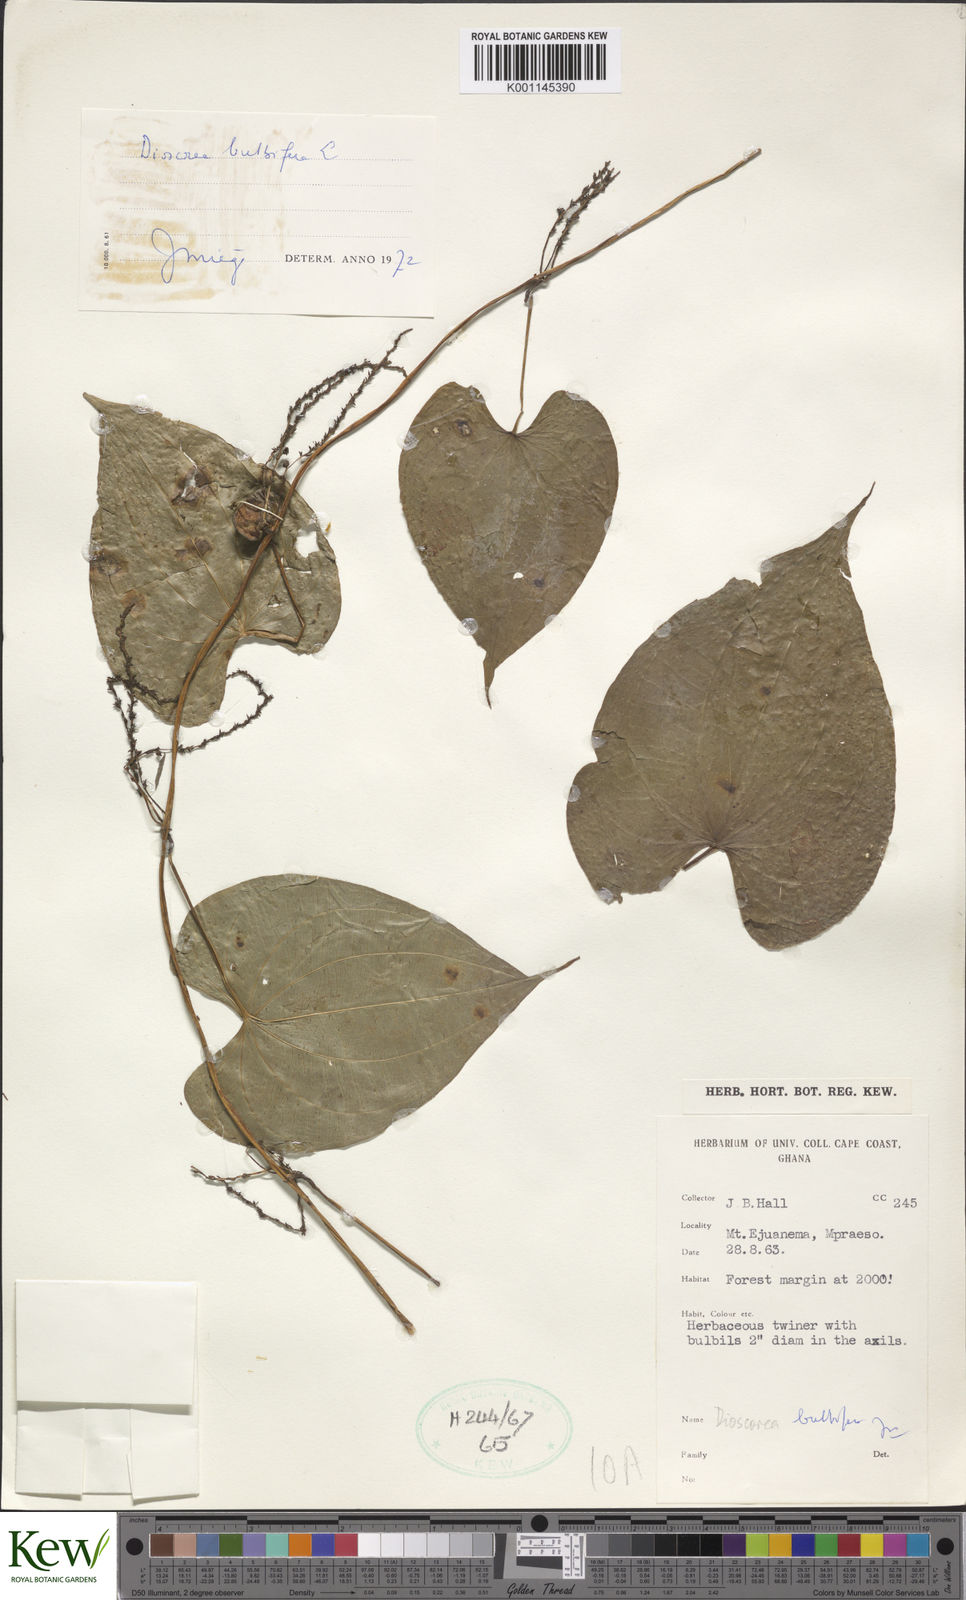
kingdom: Plantae
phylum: Tracheophyta
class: Liliopsida
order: Dioscoreales
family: Dioscoreaceae
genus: Dioscorea
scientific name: Dioscorea bulbifera
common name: Air yam
